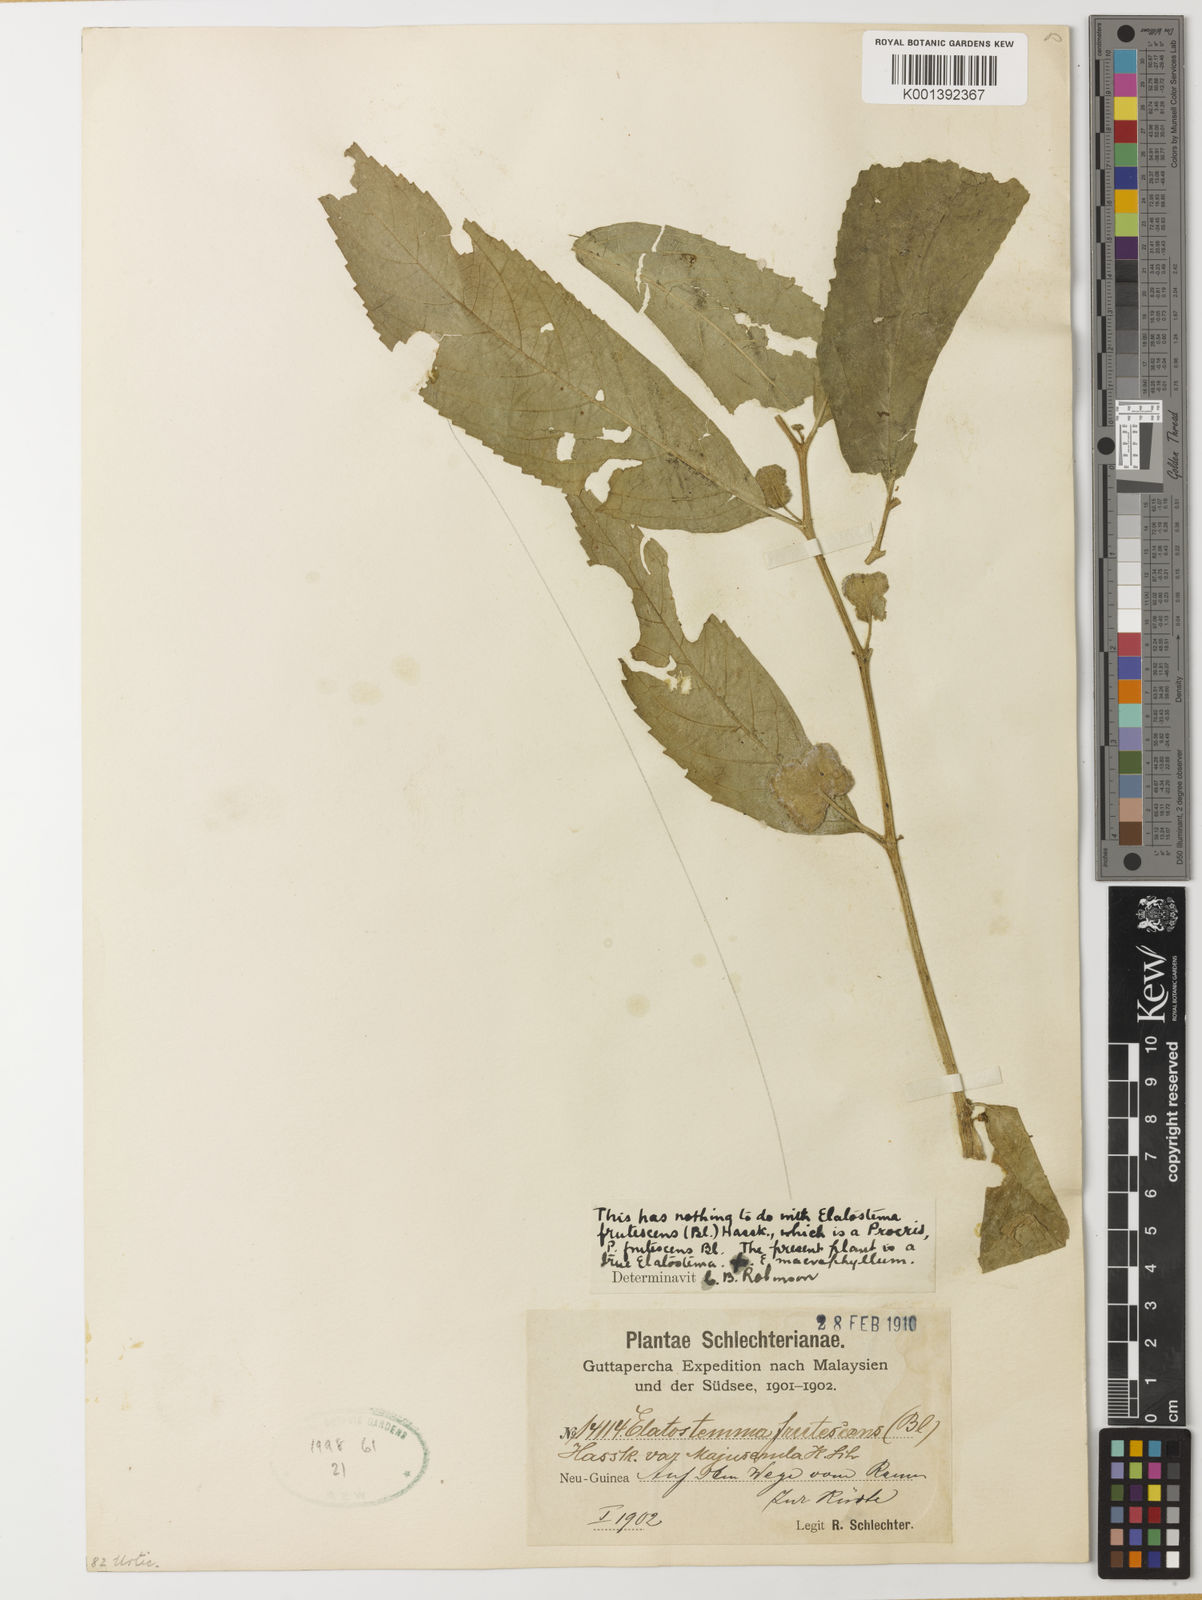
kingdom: Plantae
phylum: Tracheophyta
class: Magnoliopsida
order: Rosales
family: Urticaceae
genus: Elatostema
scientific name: Elatostema macrophyllum
